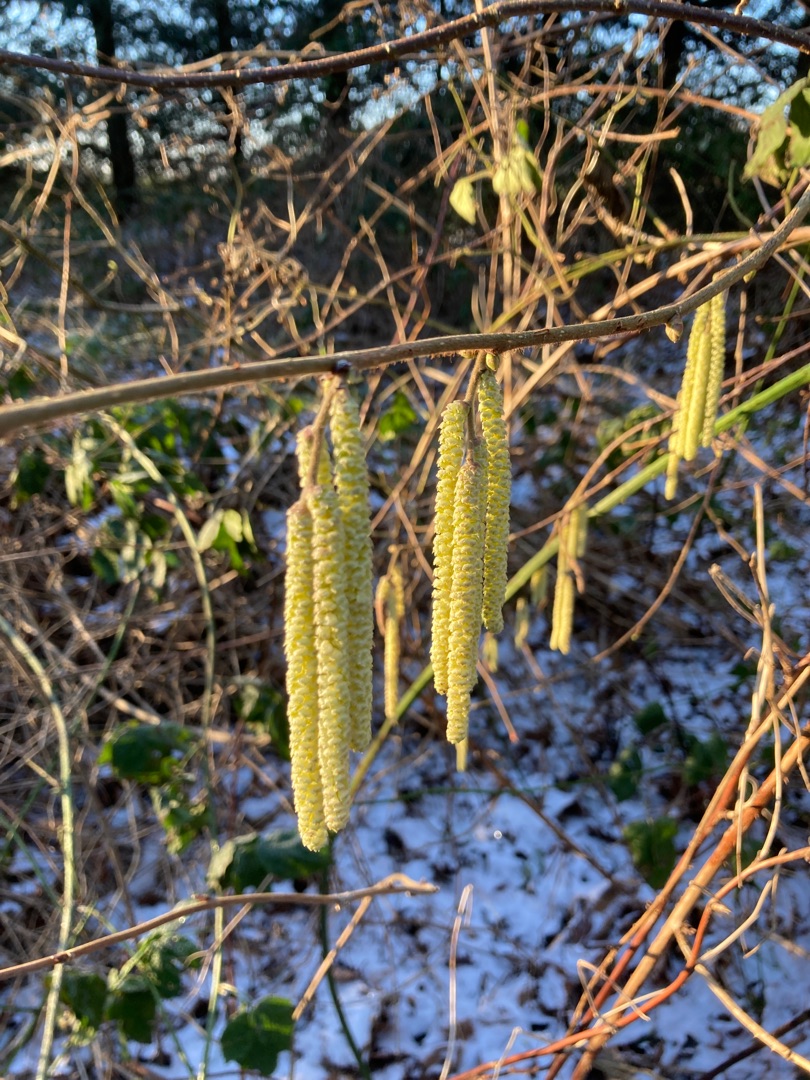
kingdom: Plantae
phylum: Tracheophyta
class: Magnoliopsida
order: Fagales
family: Betulaceae
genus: Corylus
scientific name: Corylus avellana
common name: Hassel
